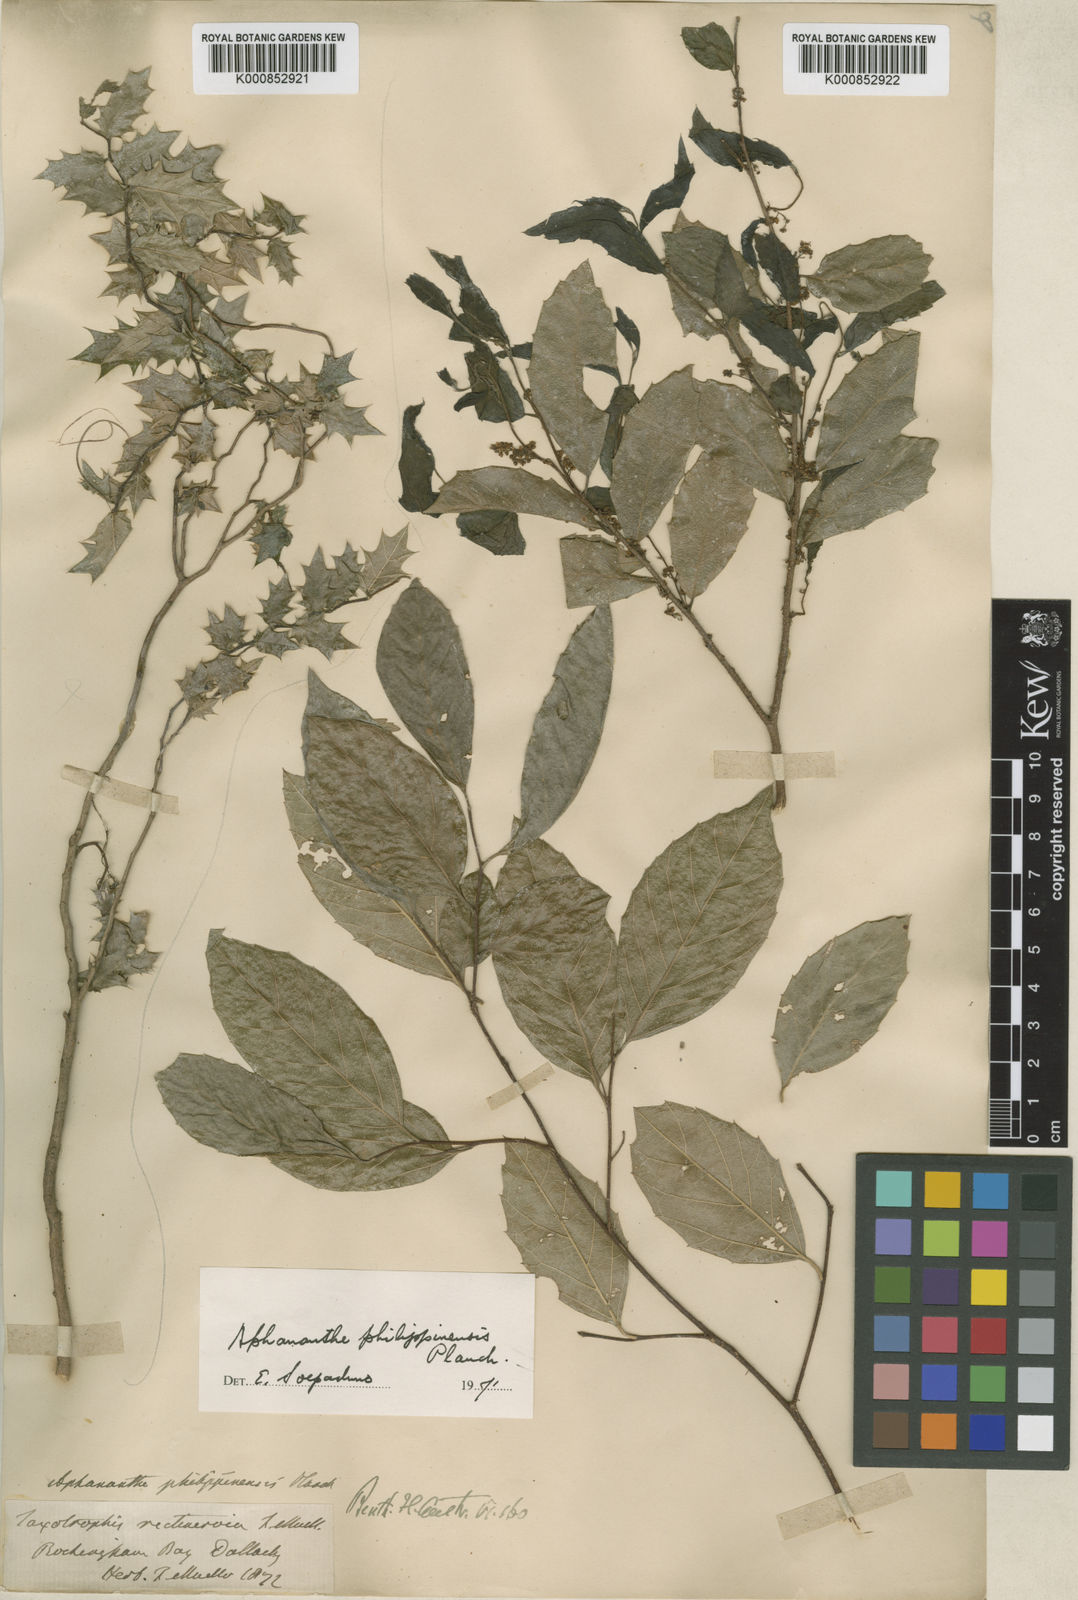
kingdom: Plantae
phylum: Tracheophyta
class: Magnoliopsida
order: Rosales
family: Cannabaceae
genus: Aphananthe
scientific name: Aphananthe philippinensis
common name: Wild holly
